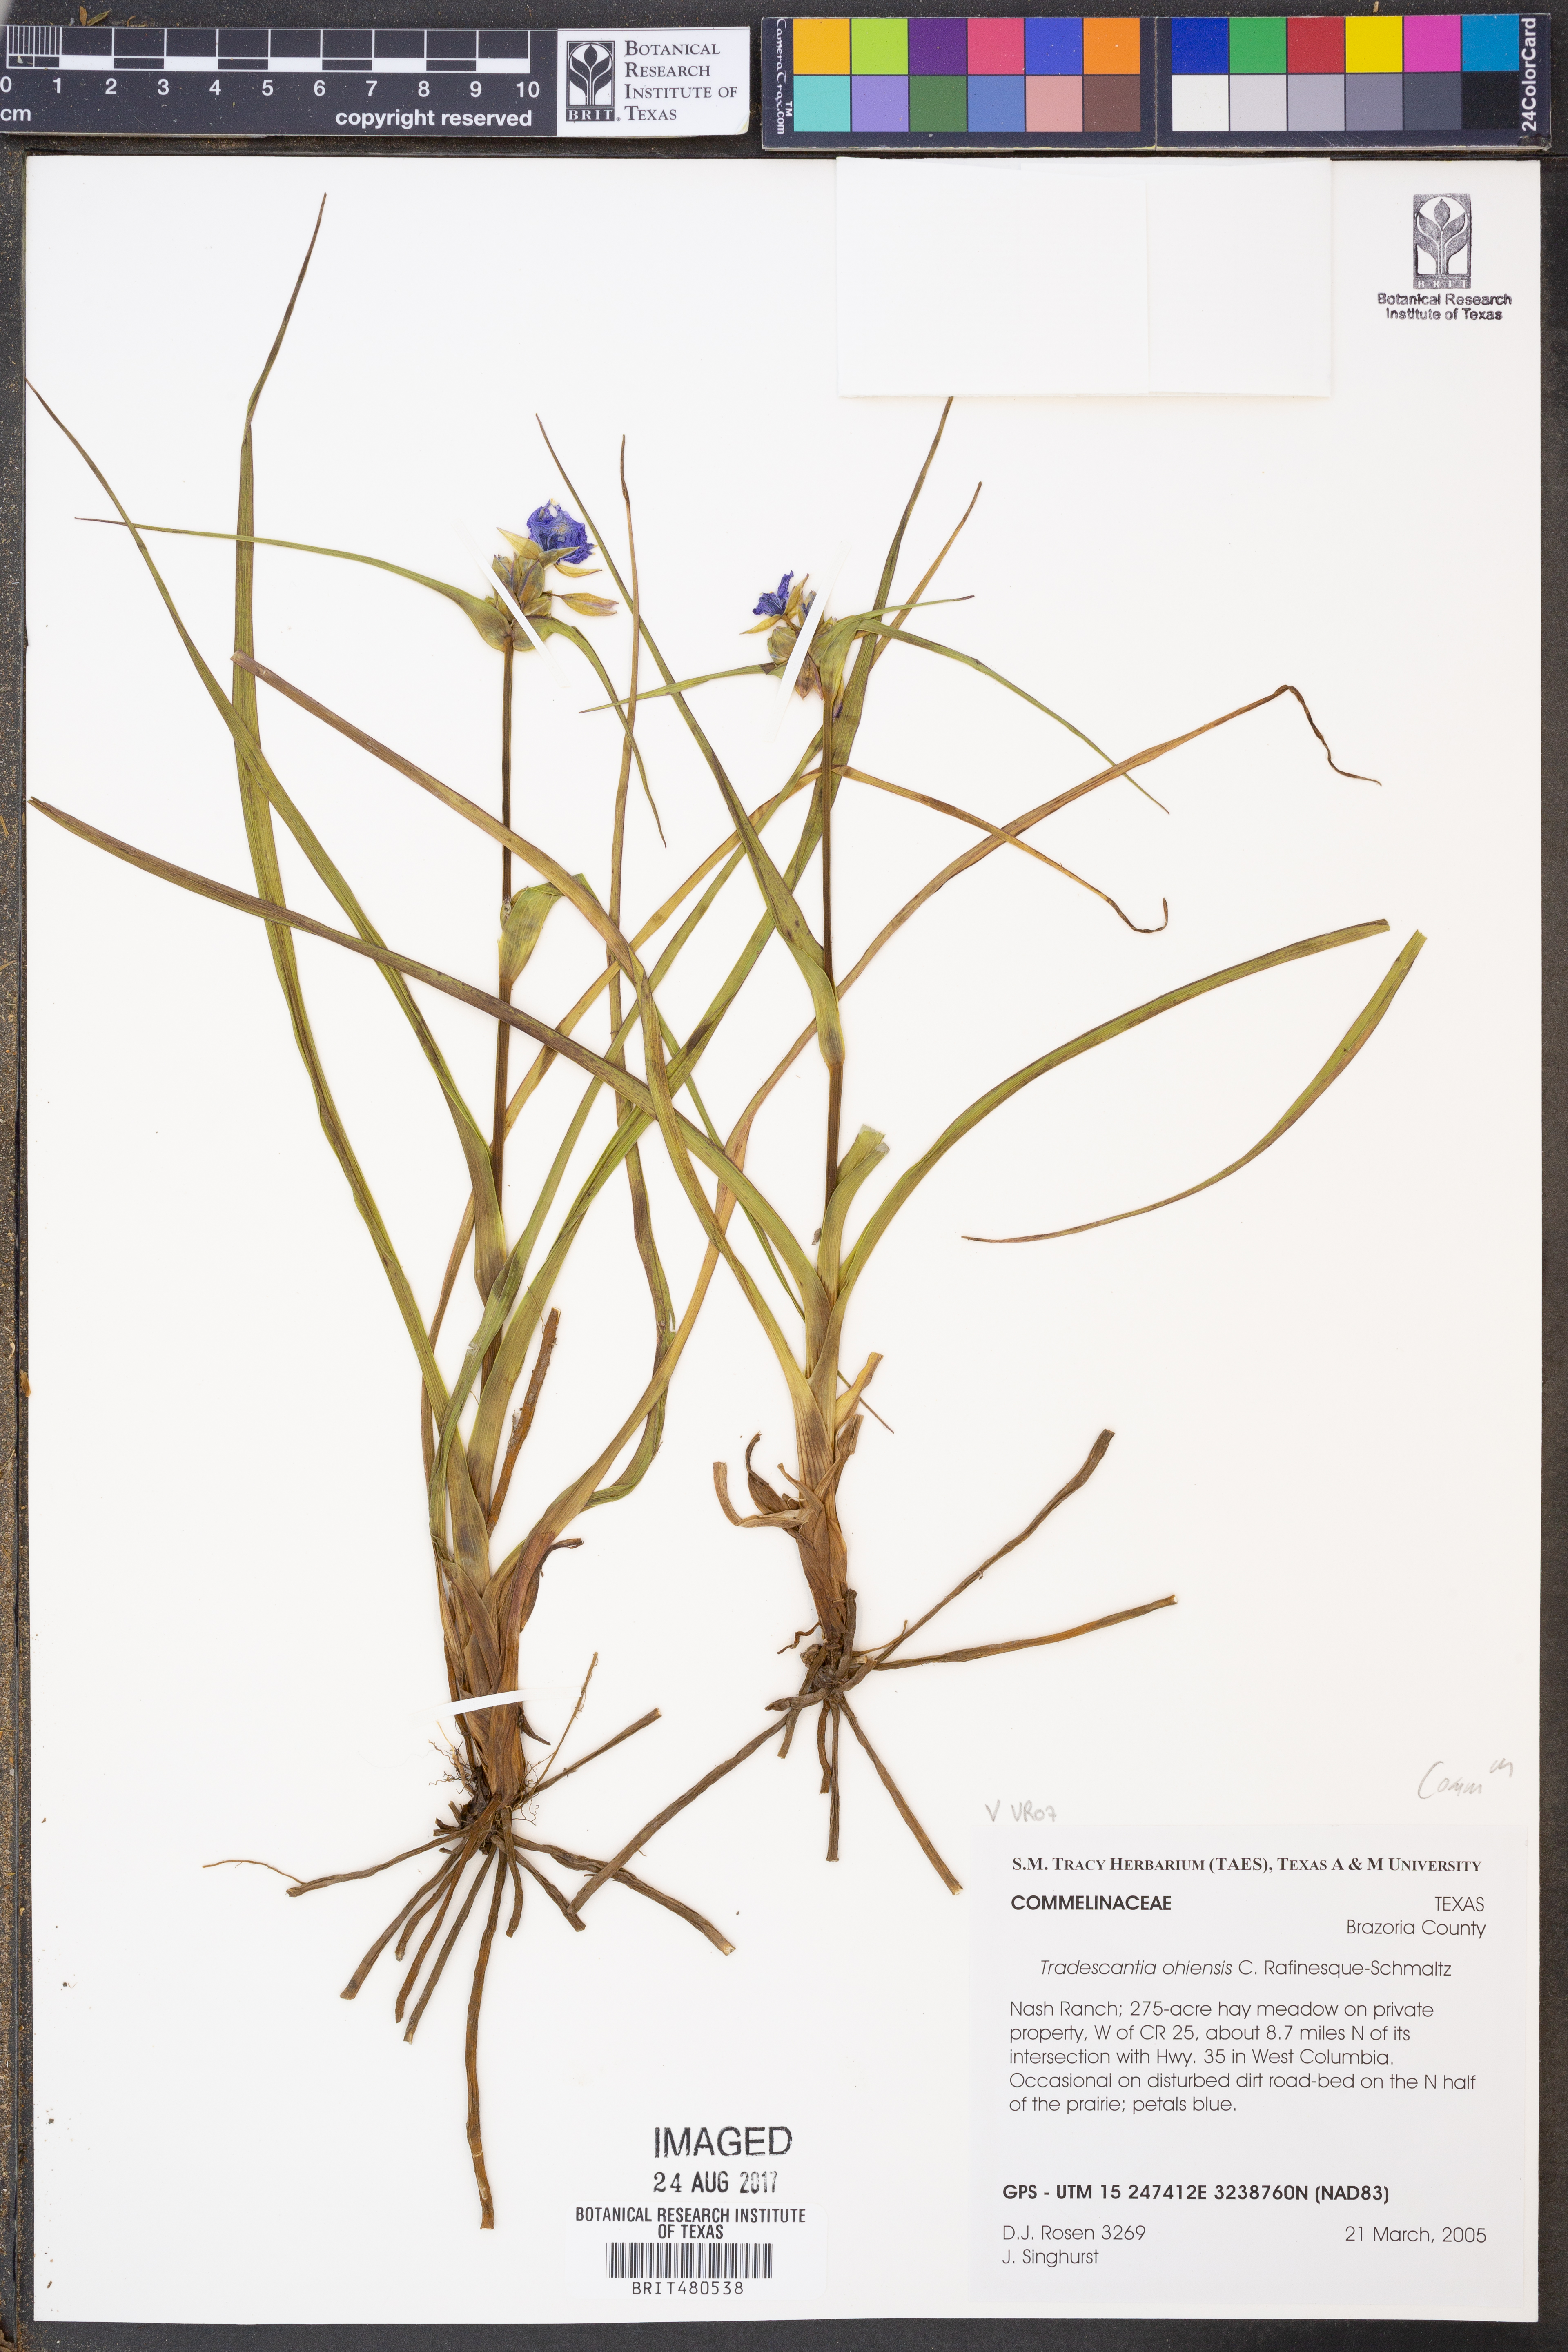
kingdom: Plantae
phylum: Tracheophyta
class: Liliopsida
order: Commelinales
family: Commelinaceae
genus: Tradescantia
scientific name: Tradescantia ohiensis
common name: Ohio spiderwort
